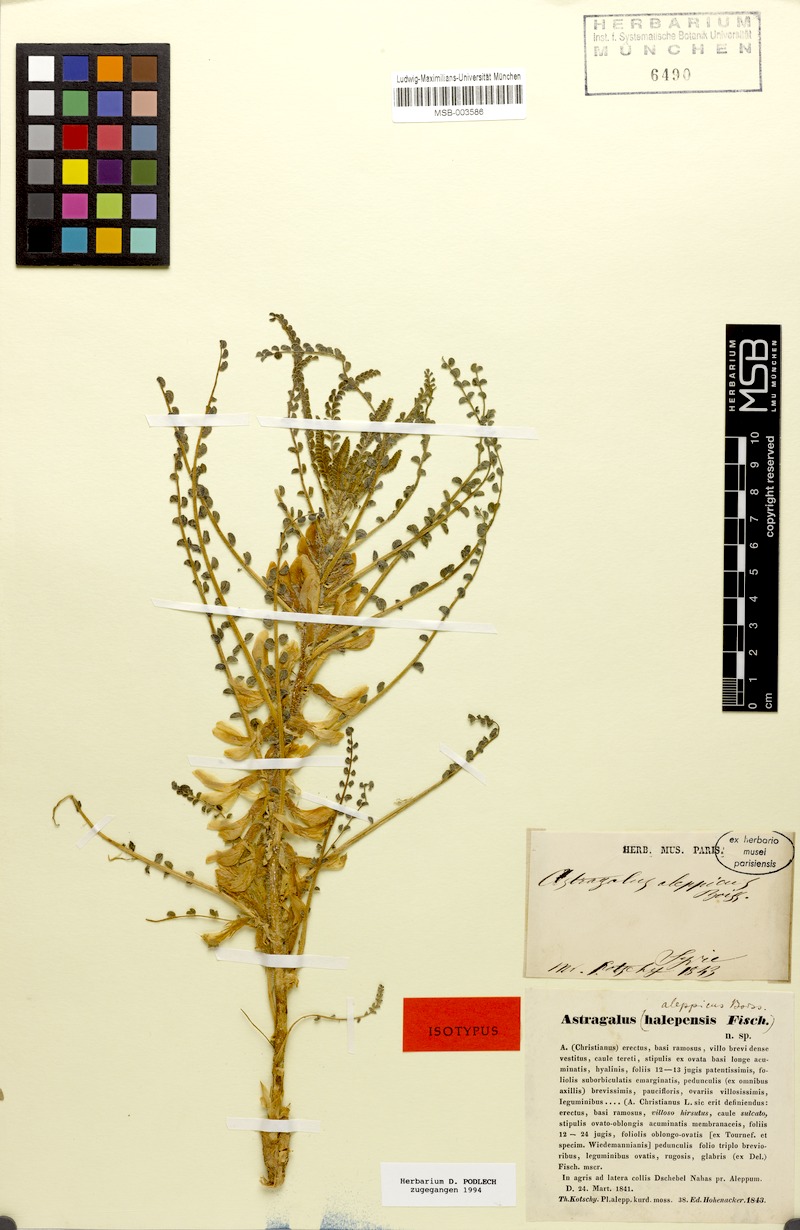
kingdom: Plantae
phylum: Tracheophyta
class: Magnoliopsida
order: Fabales
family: Fabaceae
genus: Astragalus
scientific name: Astragalus aleppicus
